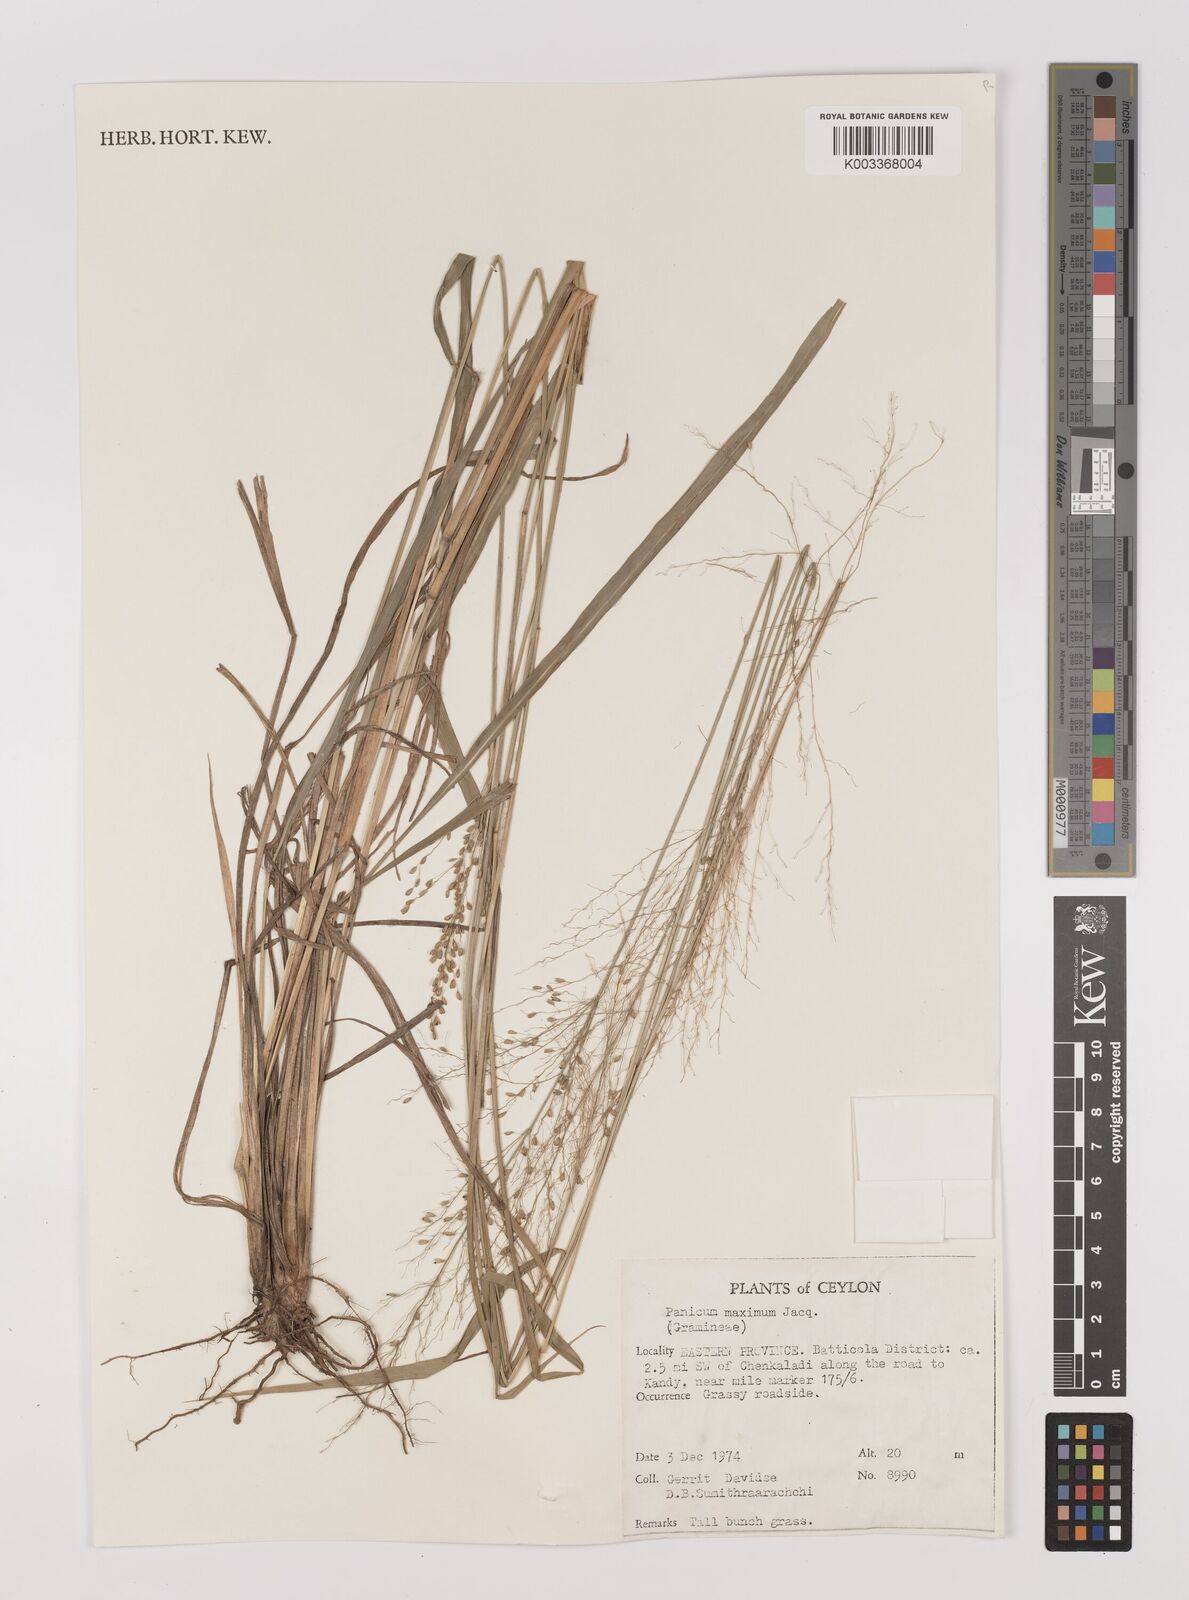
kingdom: Plantae
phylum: Tracheophyta
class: Liliopsida
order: Poales
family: Poaceae
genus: Megathyrsus
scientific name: Megathyrsus maximus
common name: Guineagrass
